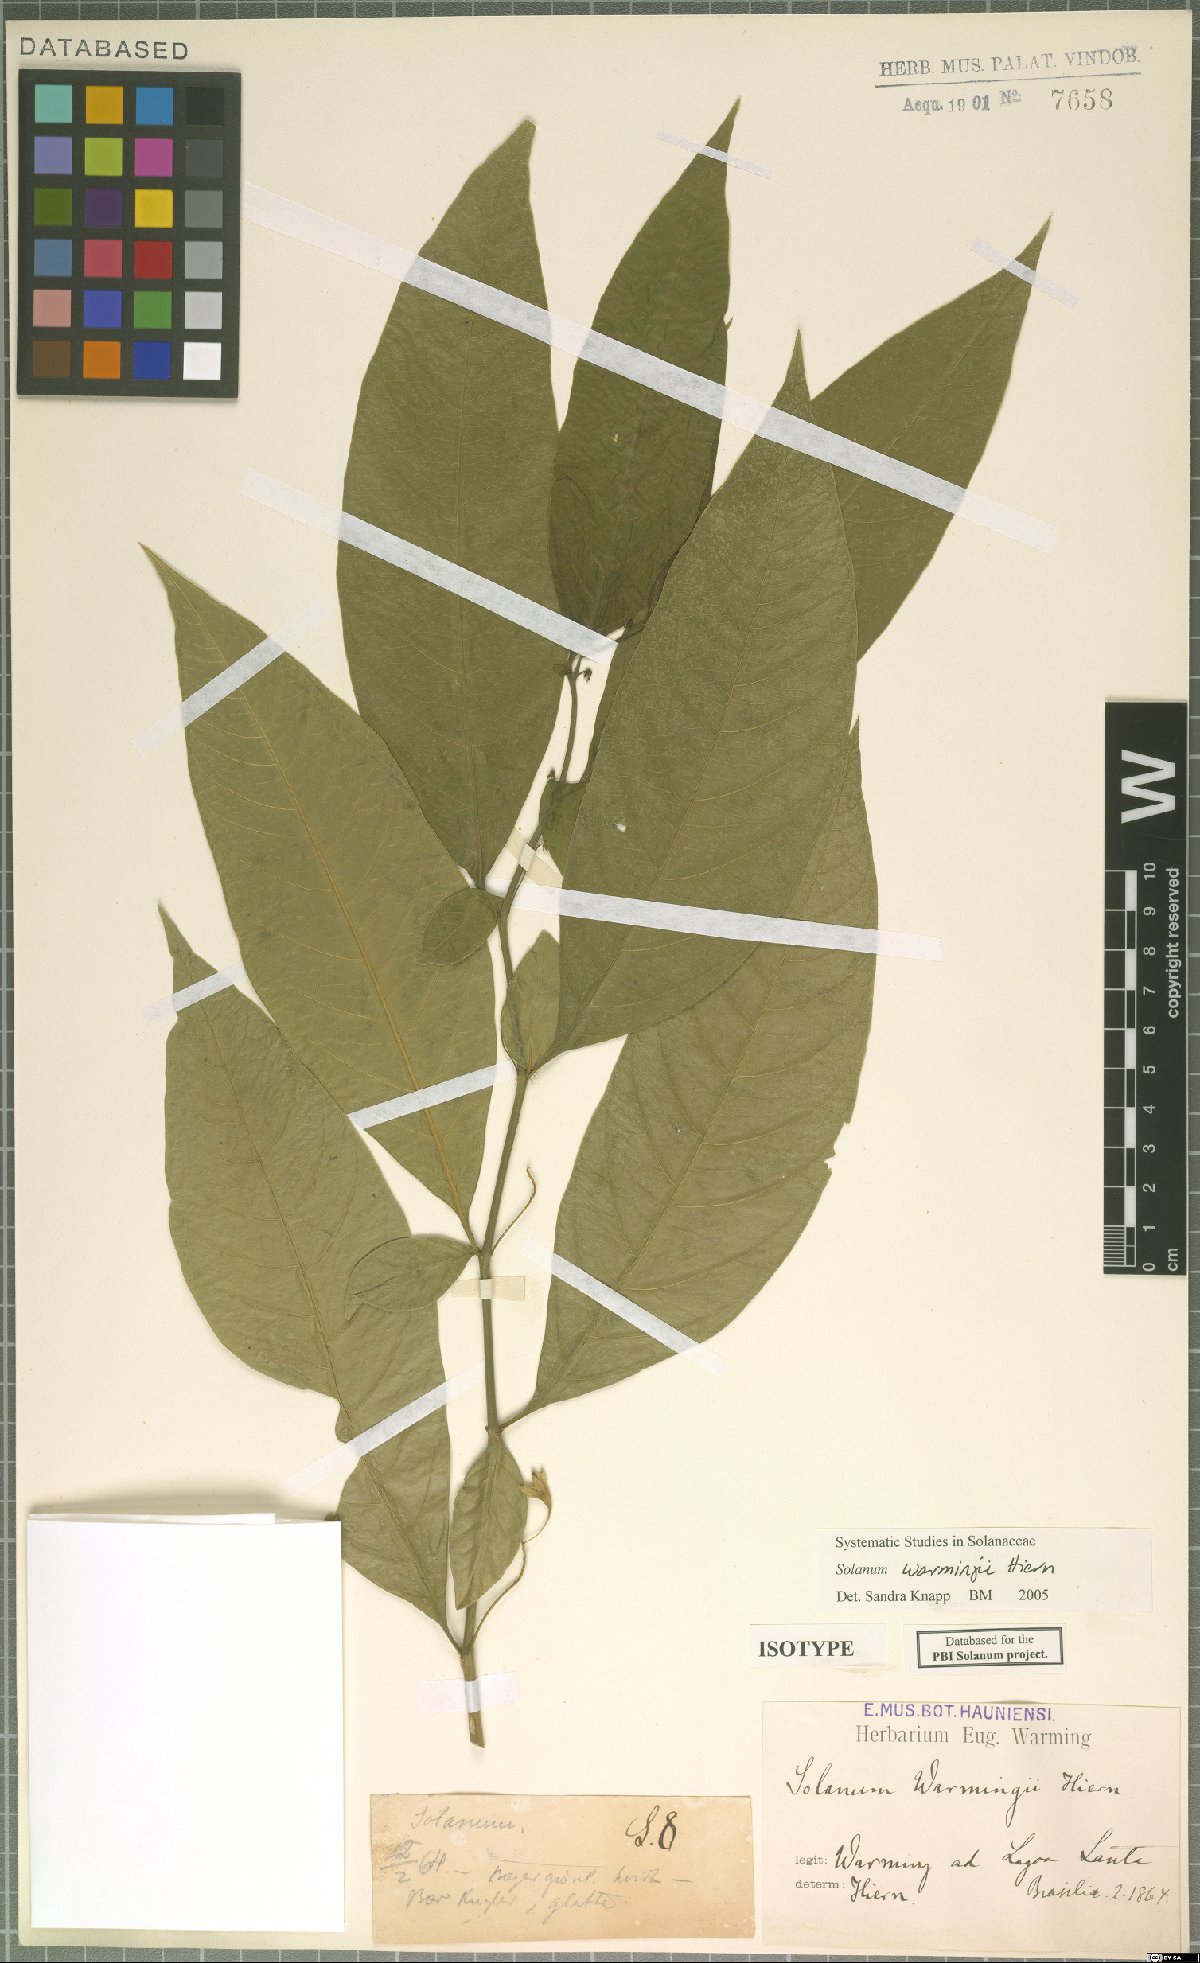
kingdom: Plantae
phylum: Tracheophyta
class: Magnoliopsida
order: Solanales
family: Solanaceae
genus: Solanum
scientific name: Solanum warmingii
